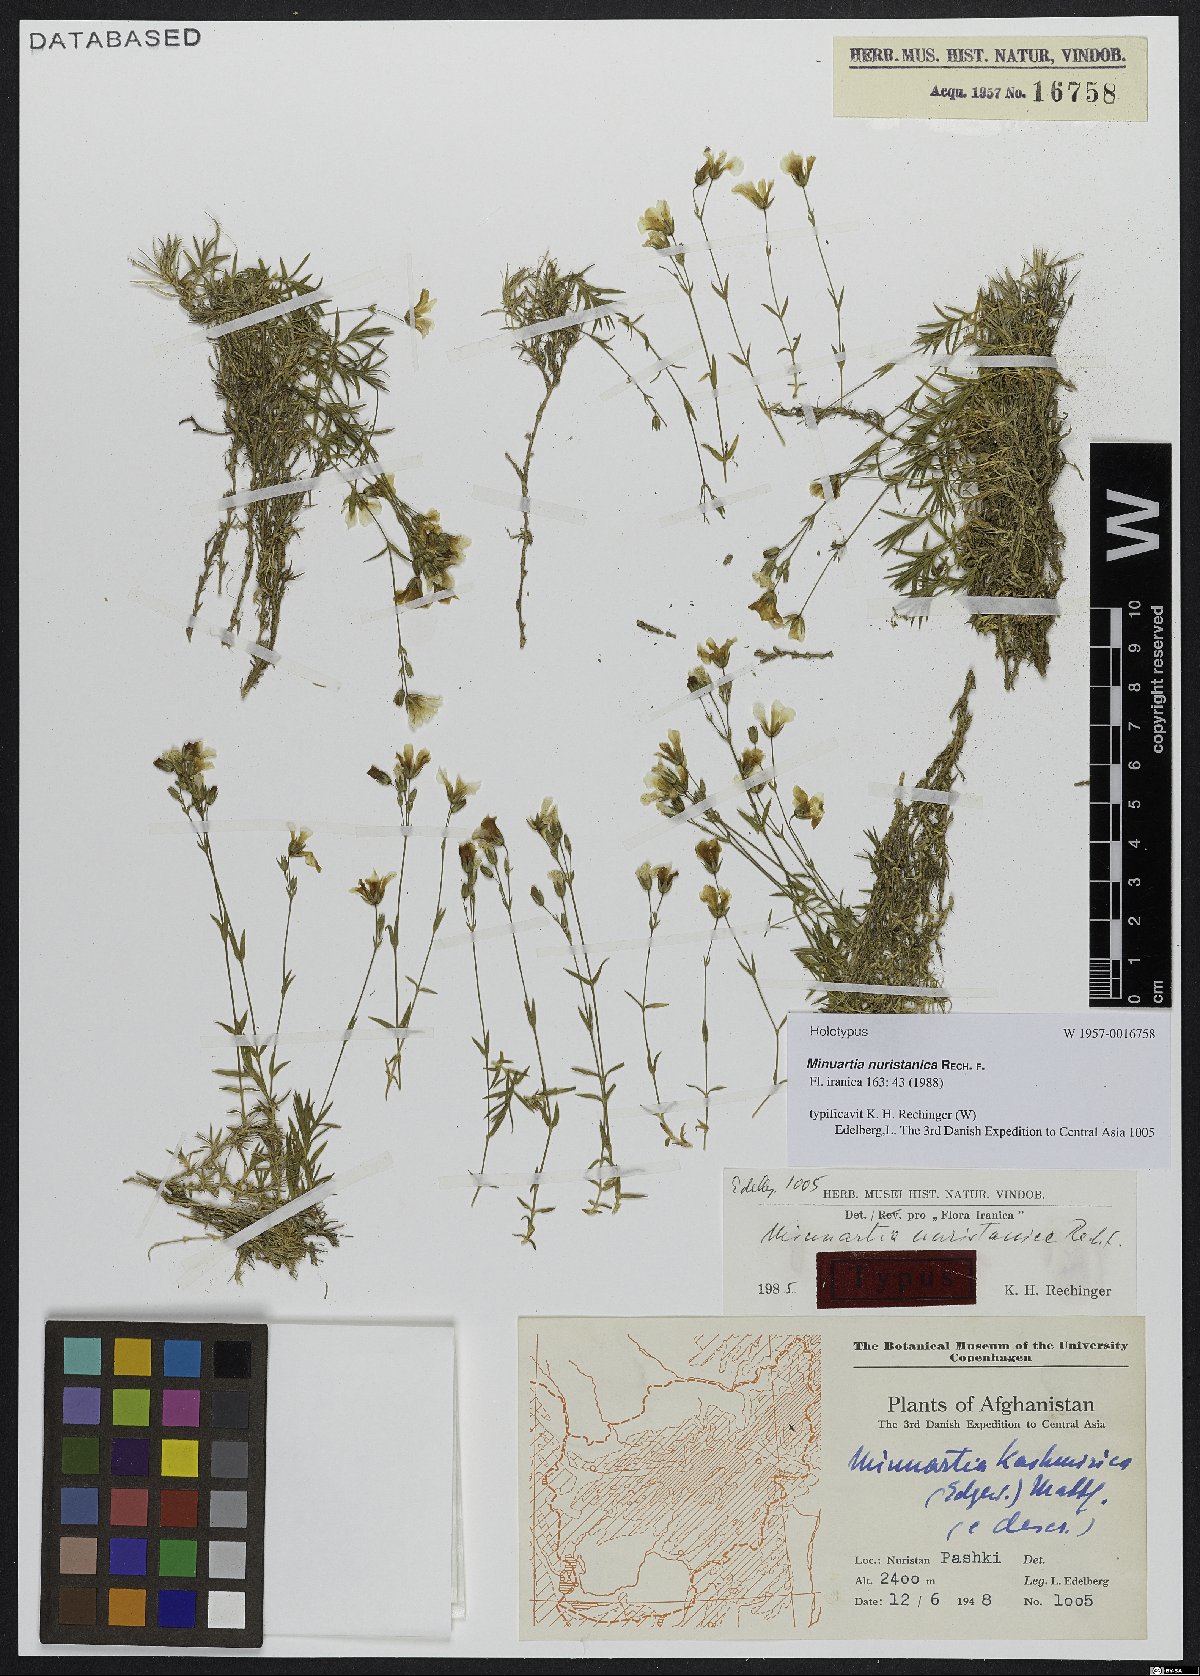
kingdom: Plantae
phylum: Tracheophyta
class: Magnoliopsida
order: Caryophyllales
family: Caryophyllaceae
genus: Sabulina
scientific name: Sabulina nuristanica
